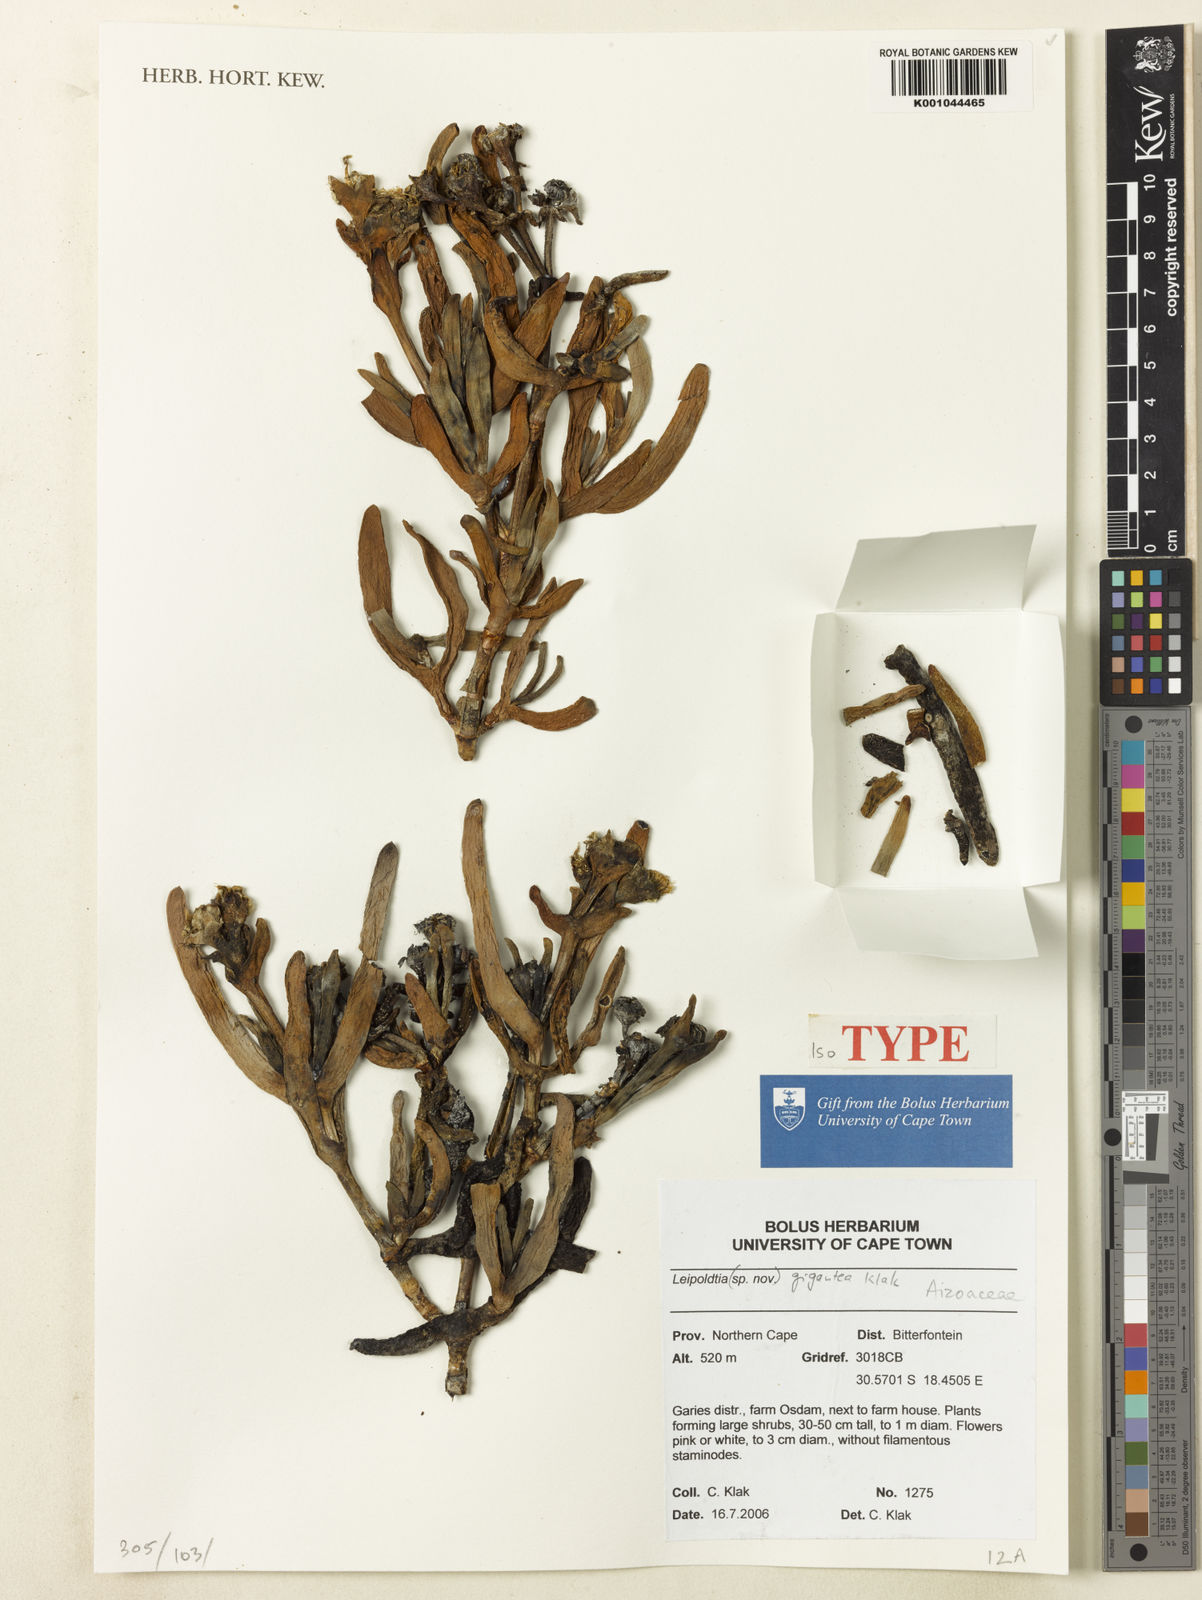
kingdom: Plantae
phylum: Tracheophyta
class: Magnoliopsida
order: Caryophyllales
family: Aizoaceae
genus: Leipoldtia
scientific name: Leipoldtia gigantea
